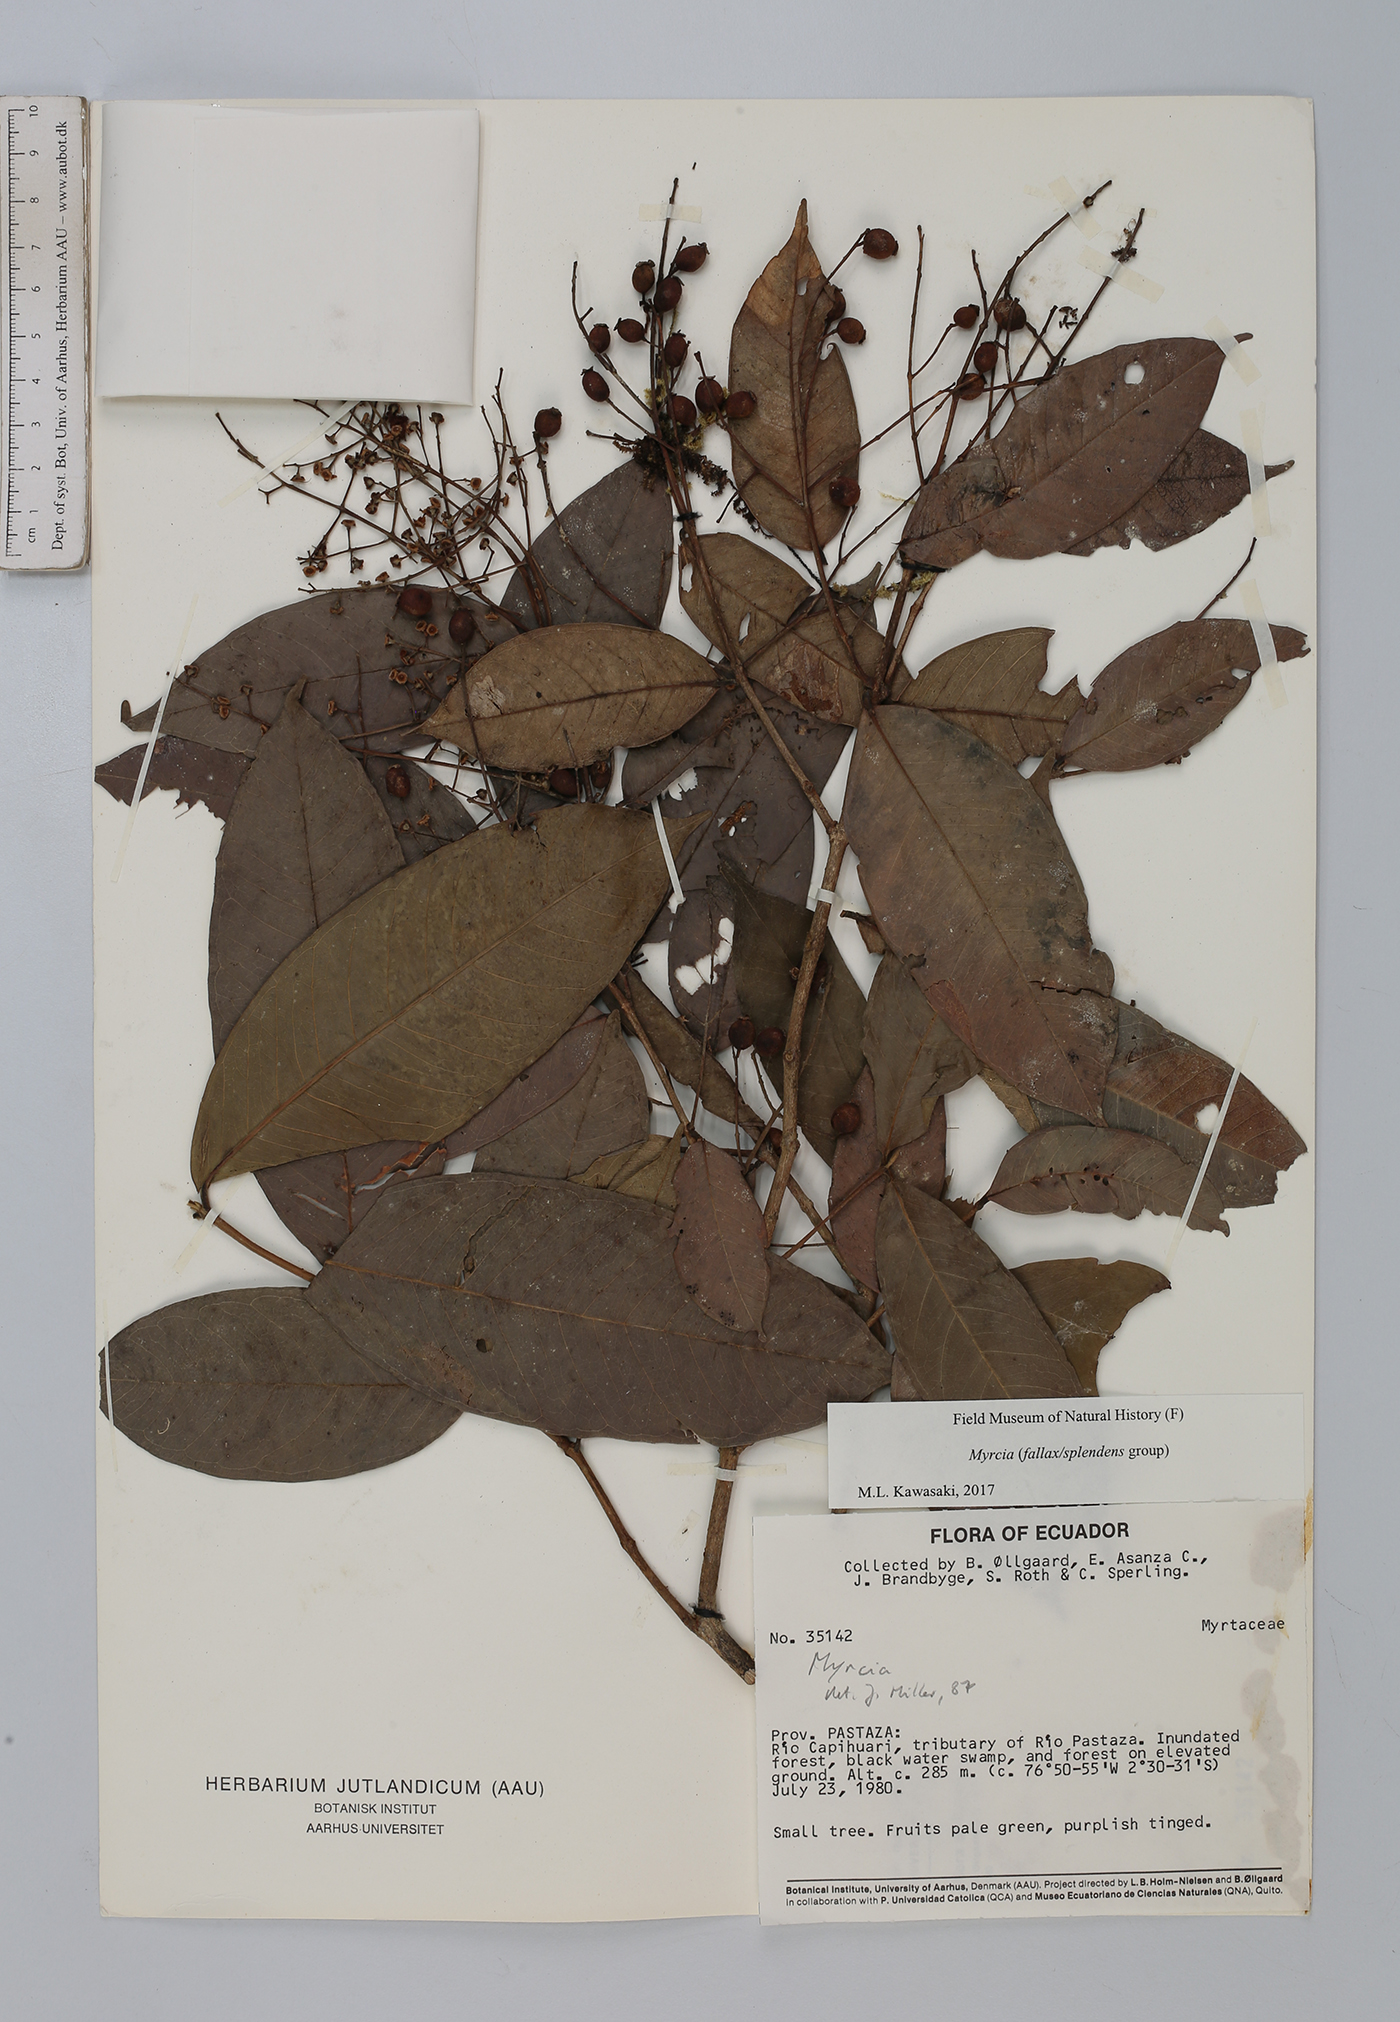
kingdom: Plantae
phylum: Tracheophyta
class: Magnoliopsida
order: Myrtales
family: Myrtaceae
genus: Myrcia
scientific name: Myrcia
